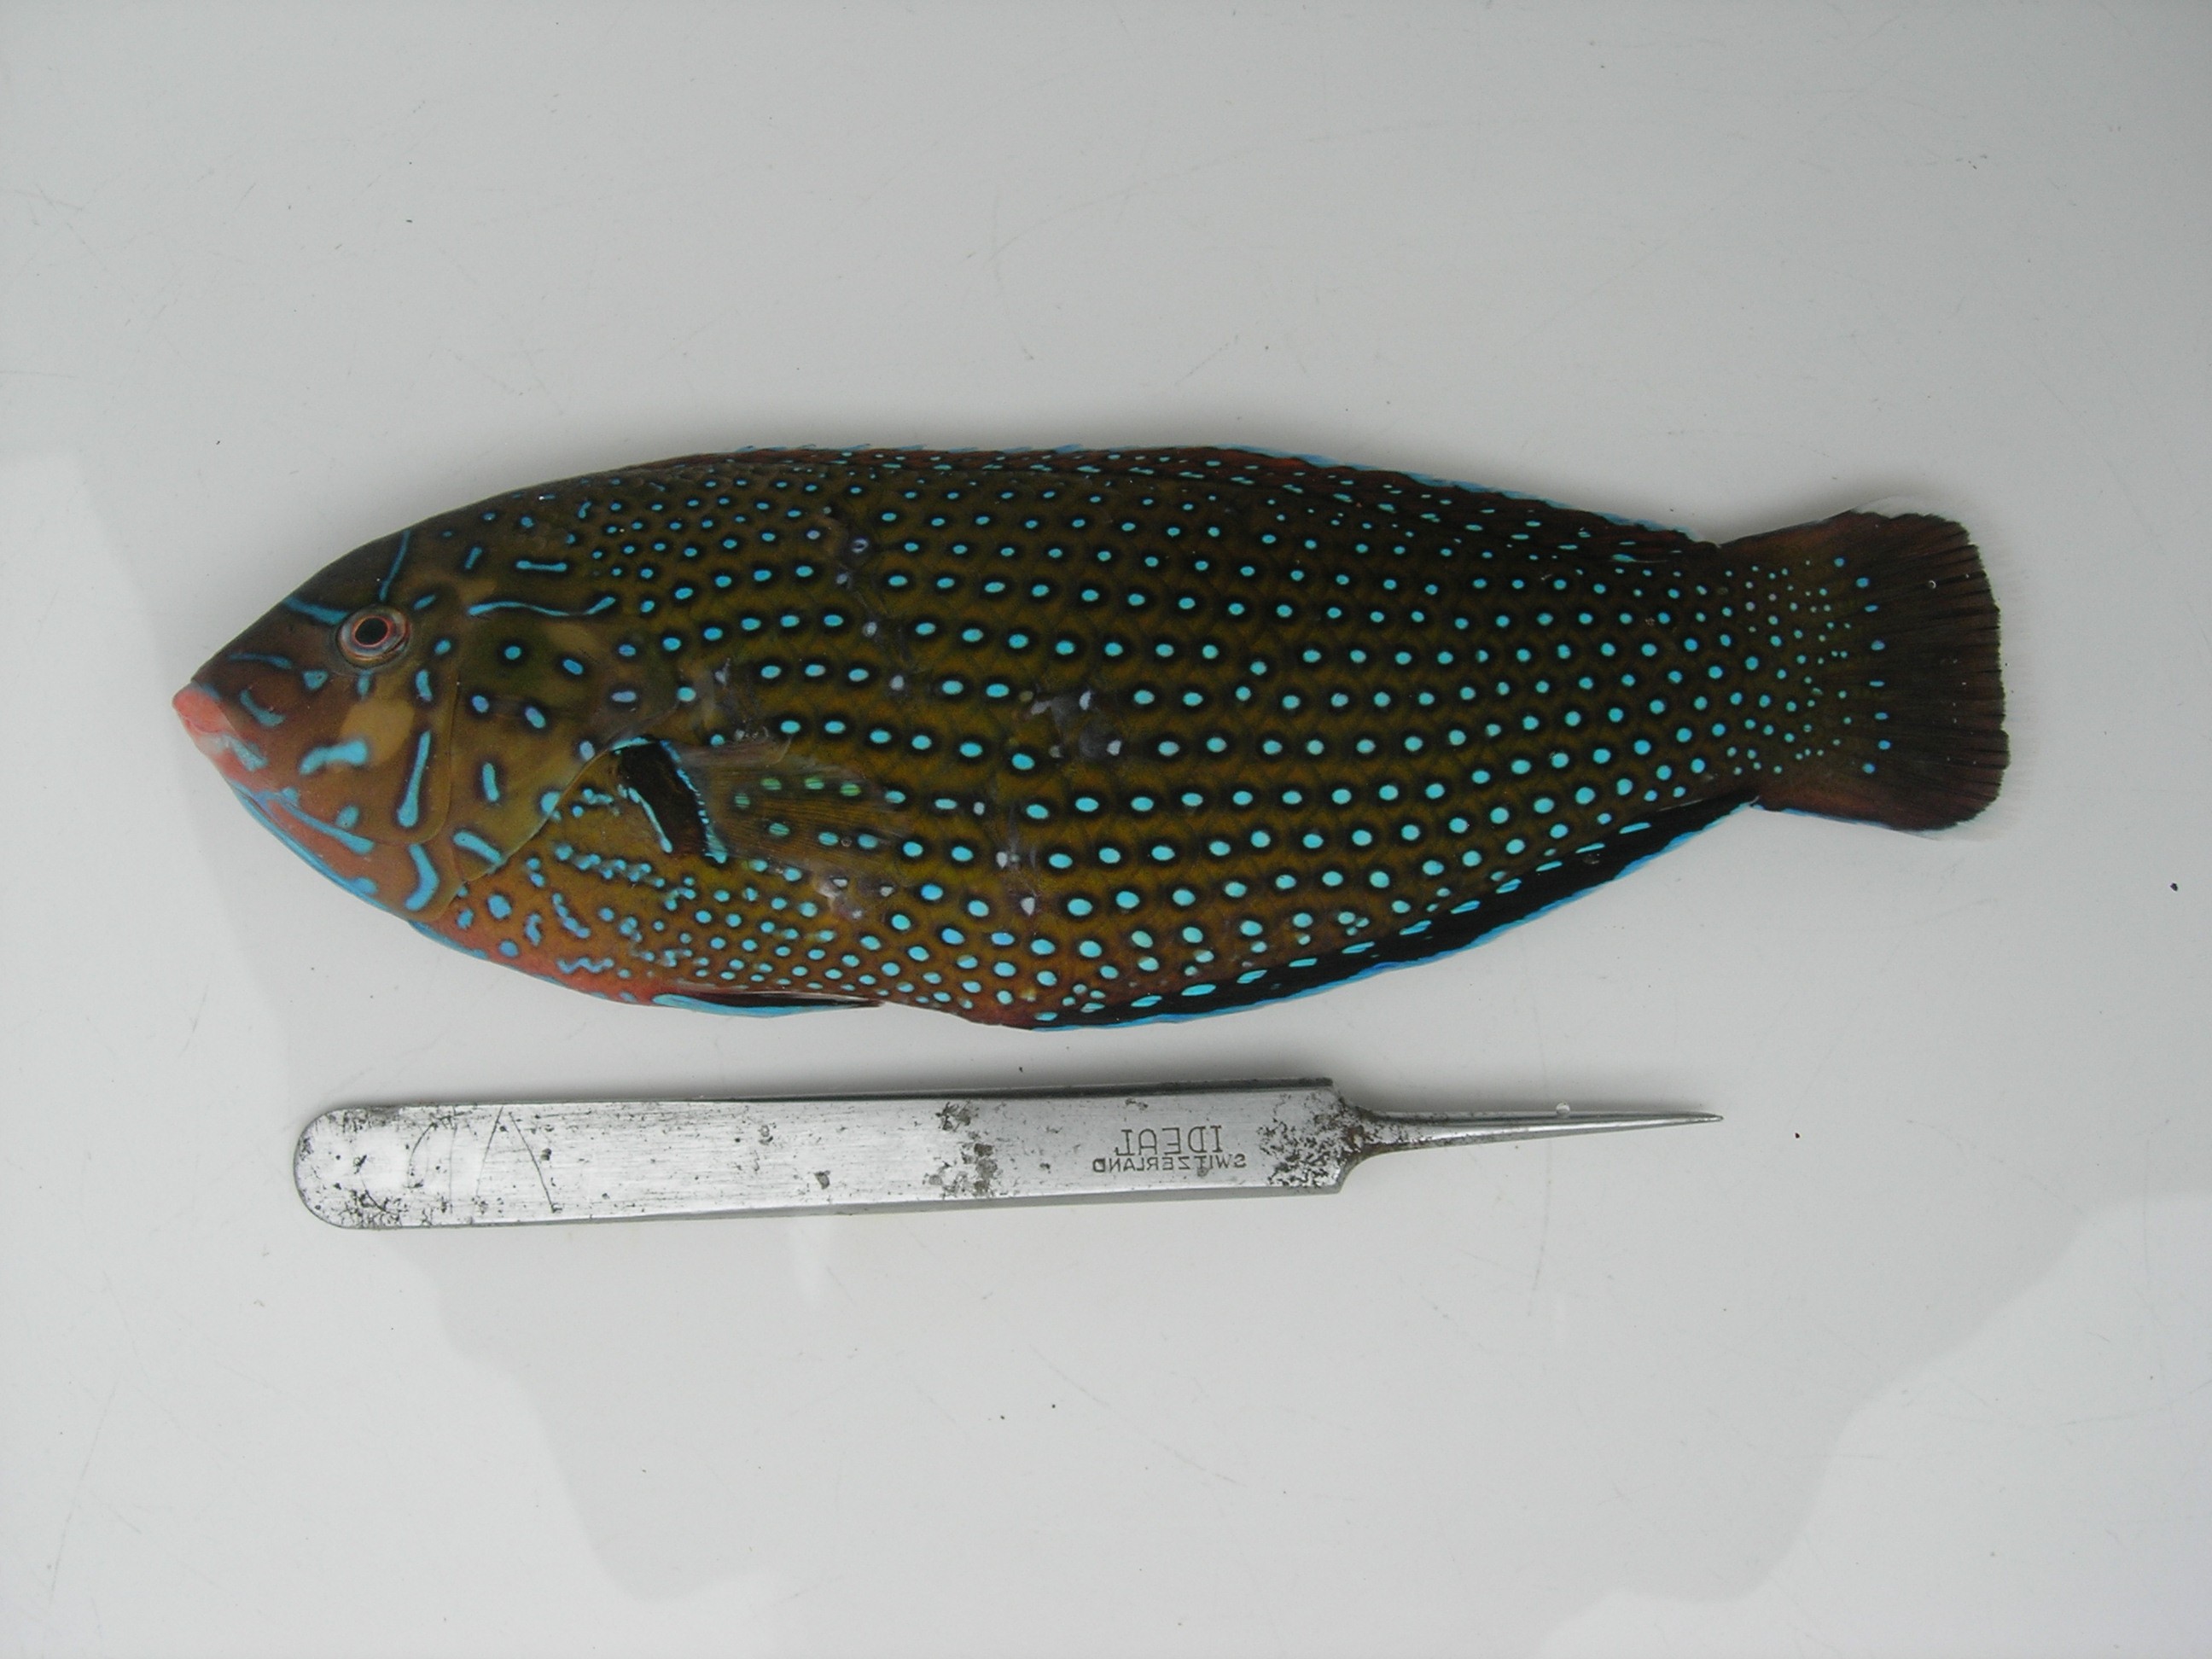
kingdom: Animalia
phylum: Chordata
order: Perciformes
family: Labridae
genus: Anampses
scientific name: Anampses caeruleopunctatus
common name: Bluespotted wrasse
